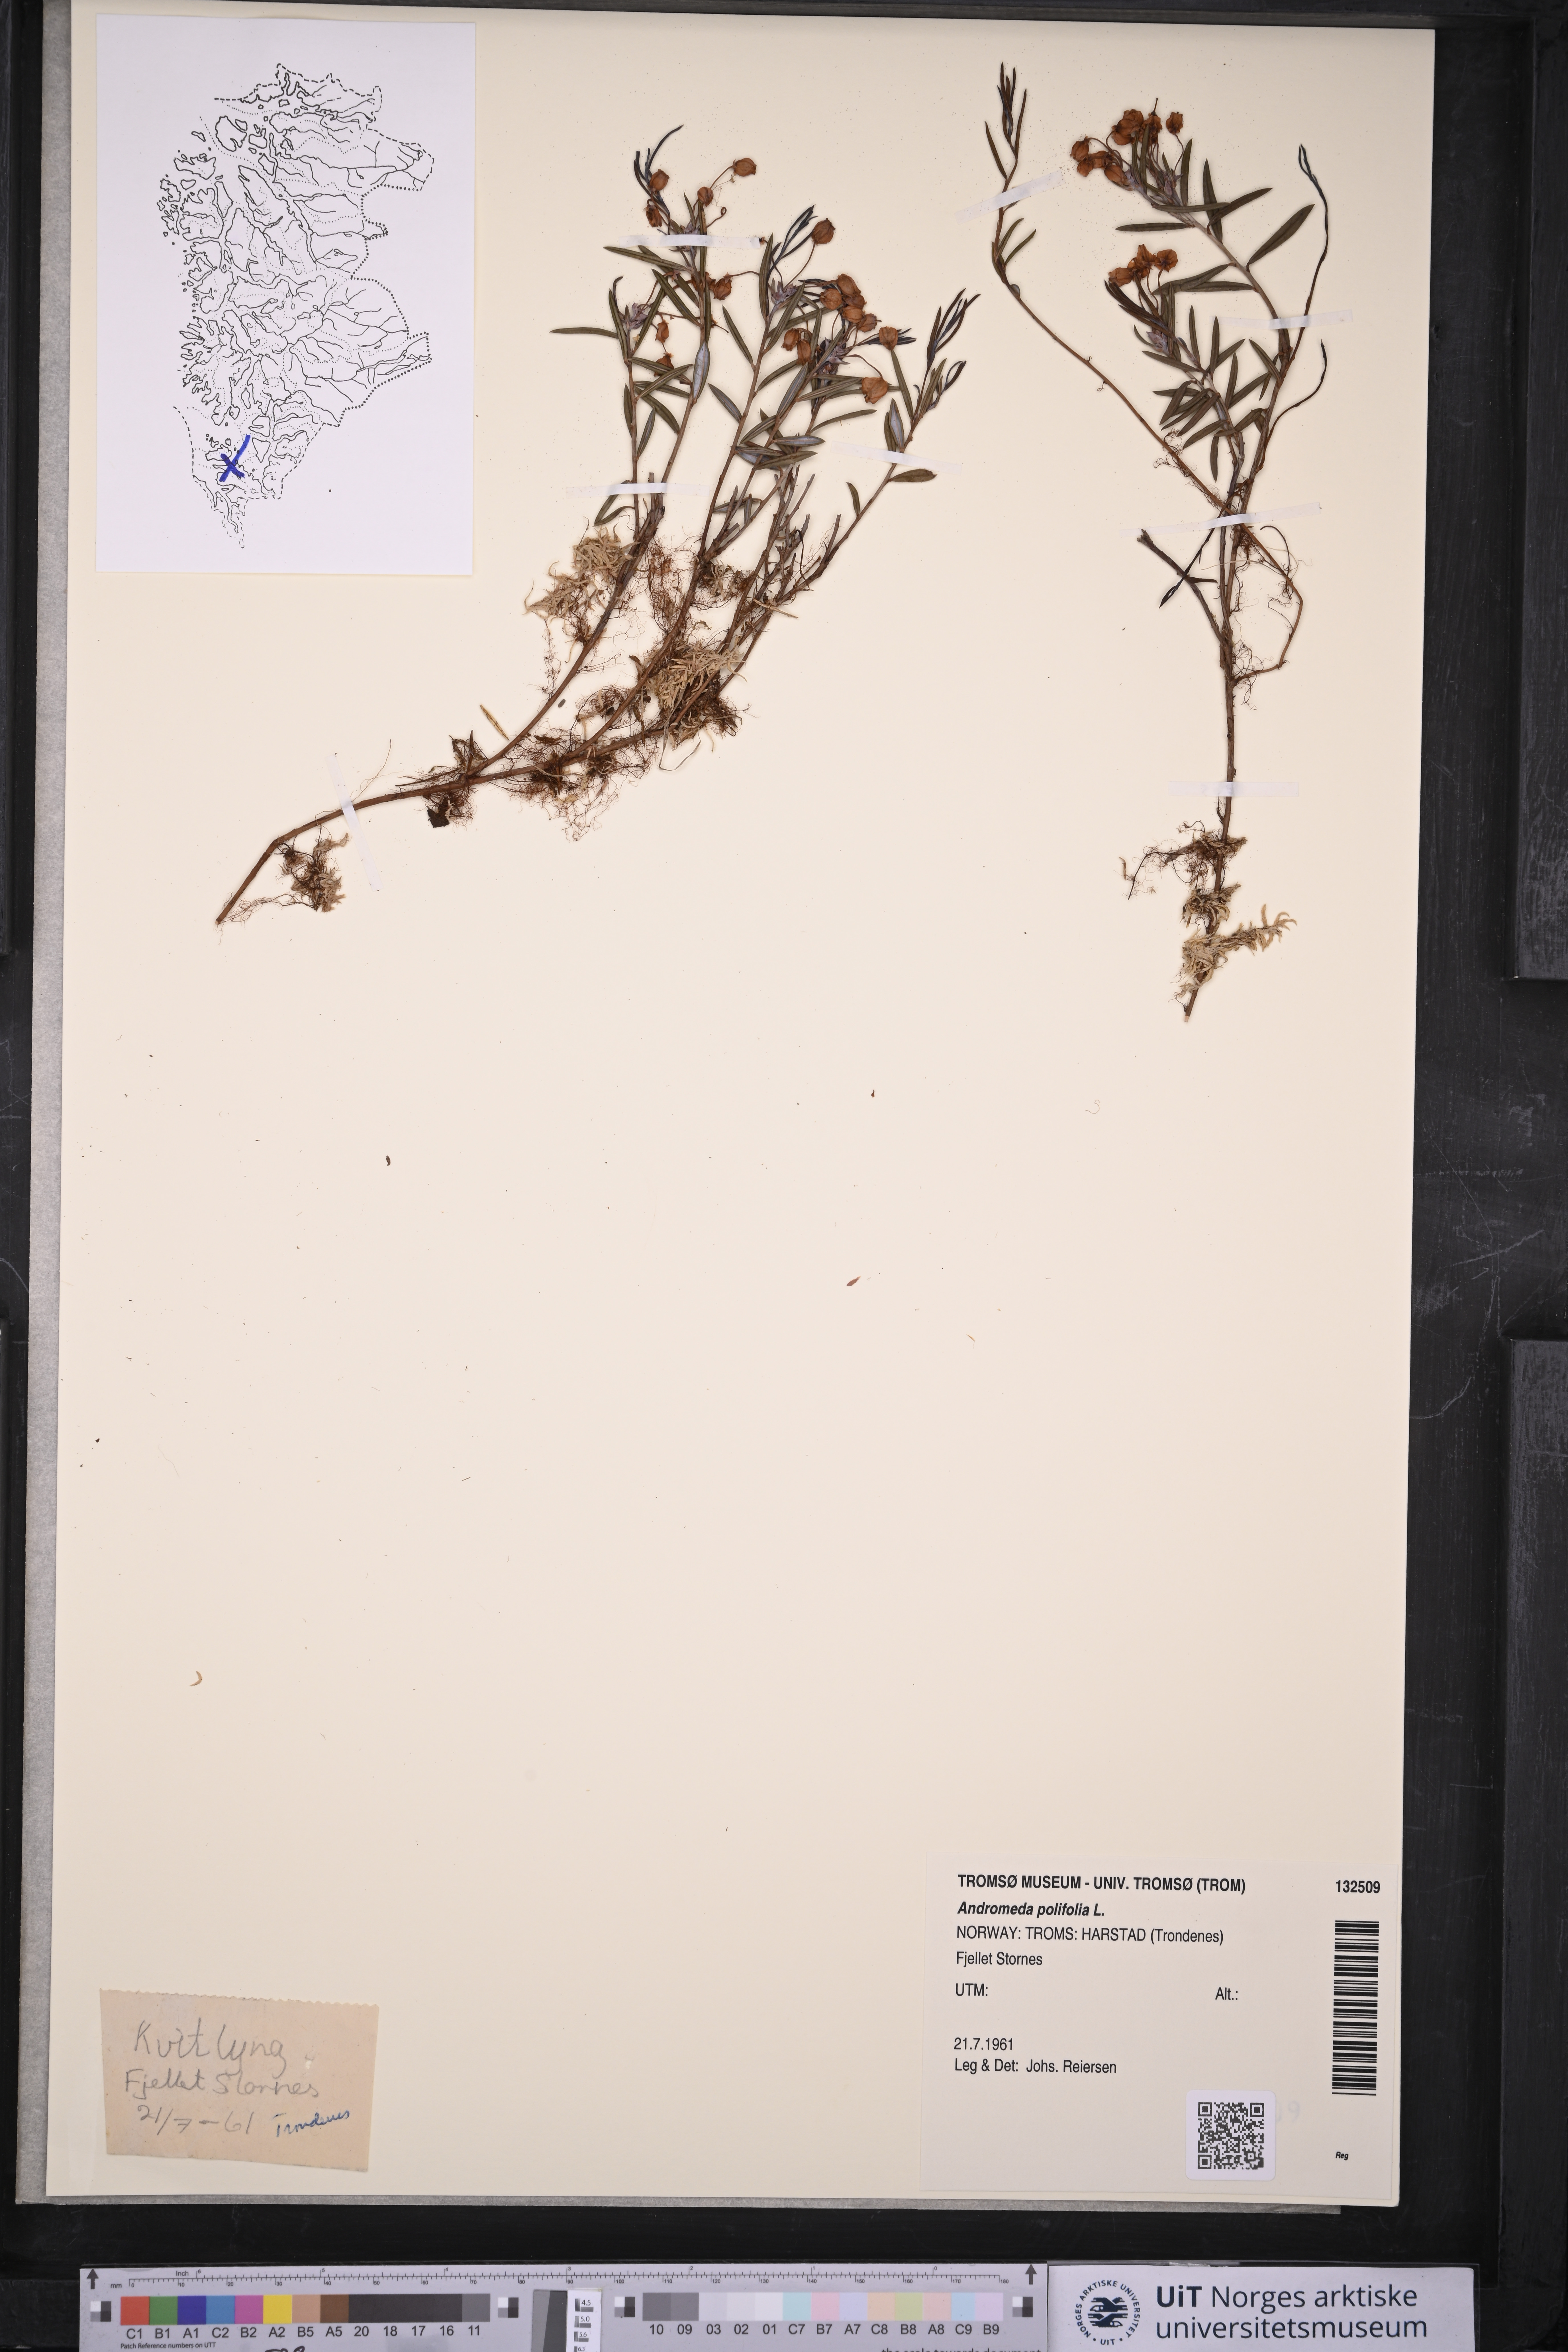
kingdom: Plantae
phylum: Tracheophyta
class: Magnoliopsida
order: Ericales
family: Ericaceae
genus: Andromeda
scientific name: Andromeda polifolia
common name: Bog-rosemary
